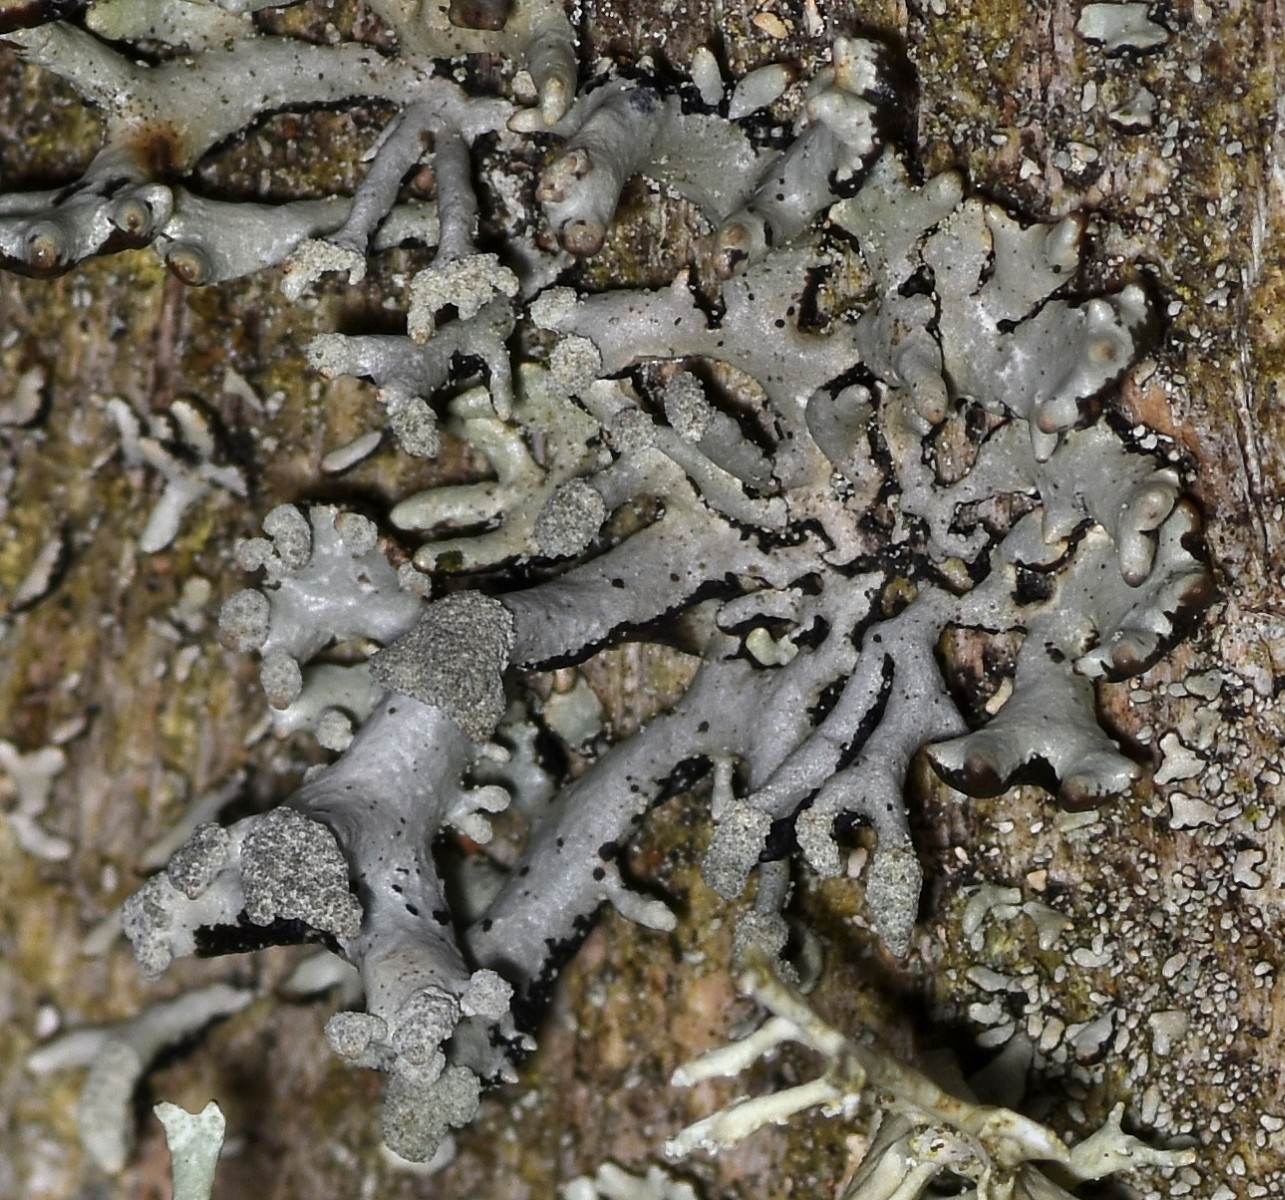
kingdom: Fungi
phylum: Ascomycota
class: Lecanoromycetes
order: Lecanorales
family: Parmeliaceae
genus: Hypogymnia
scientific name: Hypogymnia physodes
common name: almindelig kvistlav
